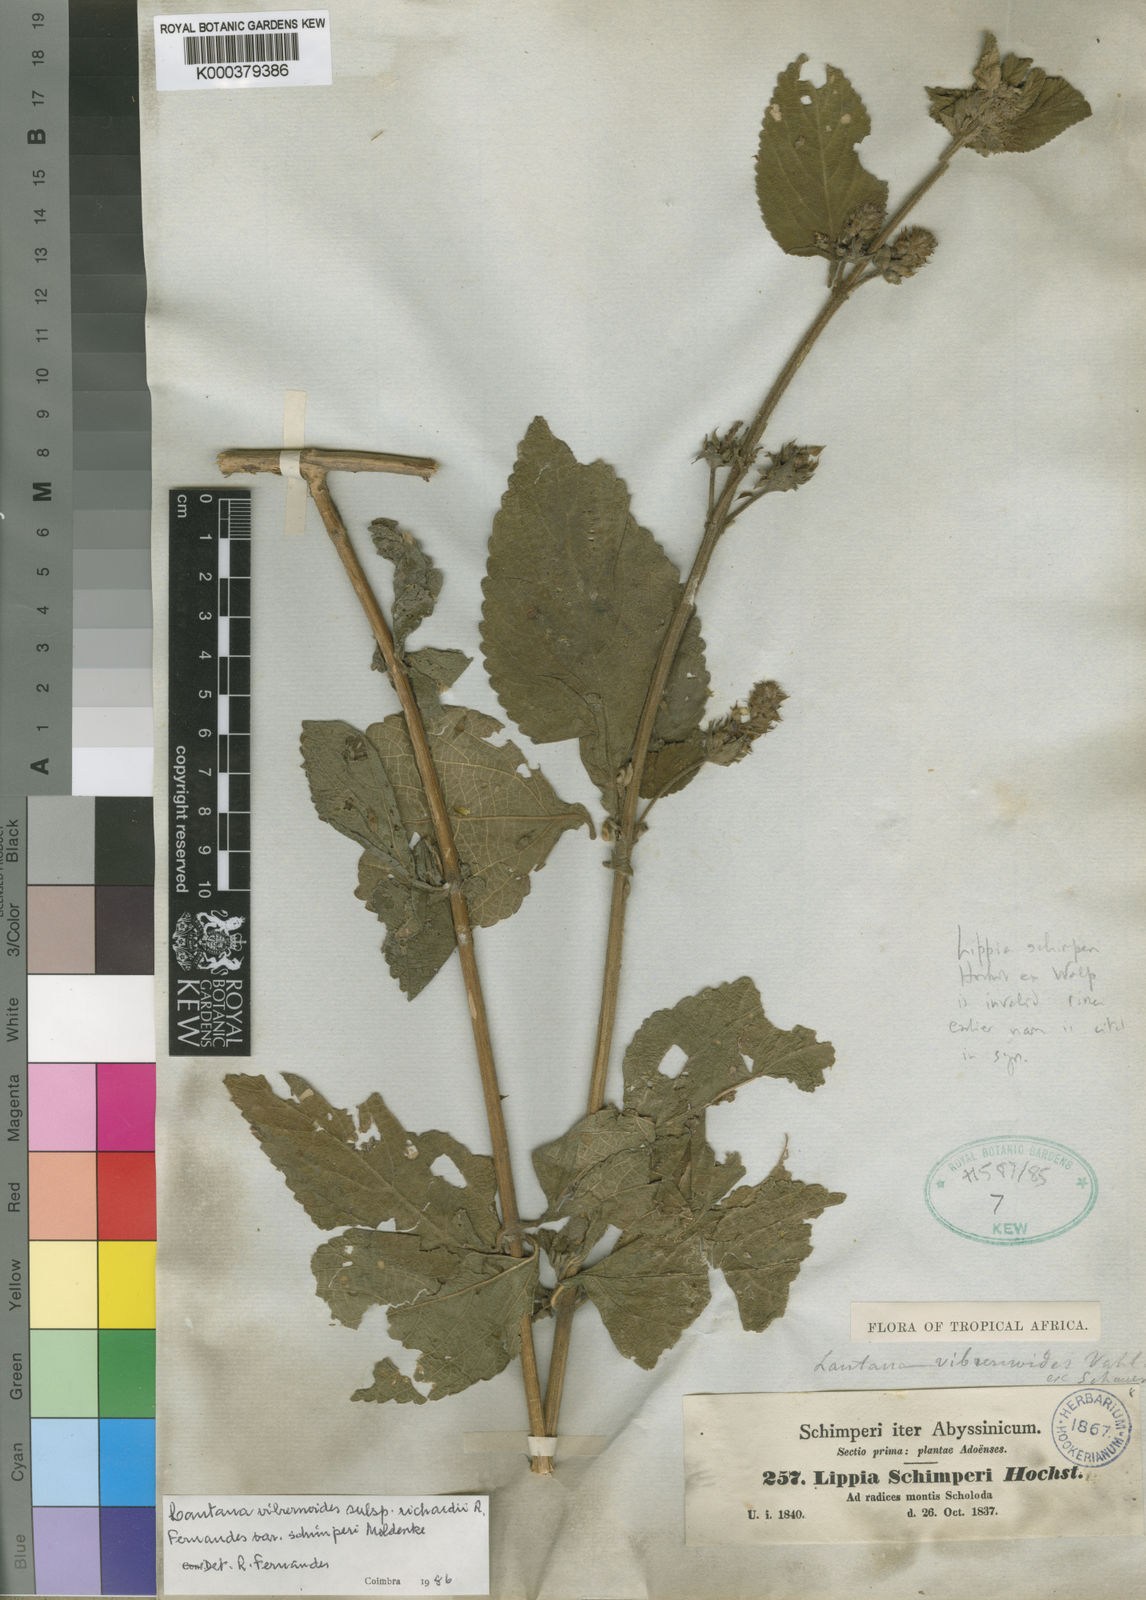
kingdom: Plantae
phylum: Tracheophyta
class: Magnoliopsida
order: Lamiales
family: Verbenaceae
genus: Lantana
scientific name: Lantana viburnoides
